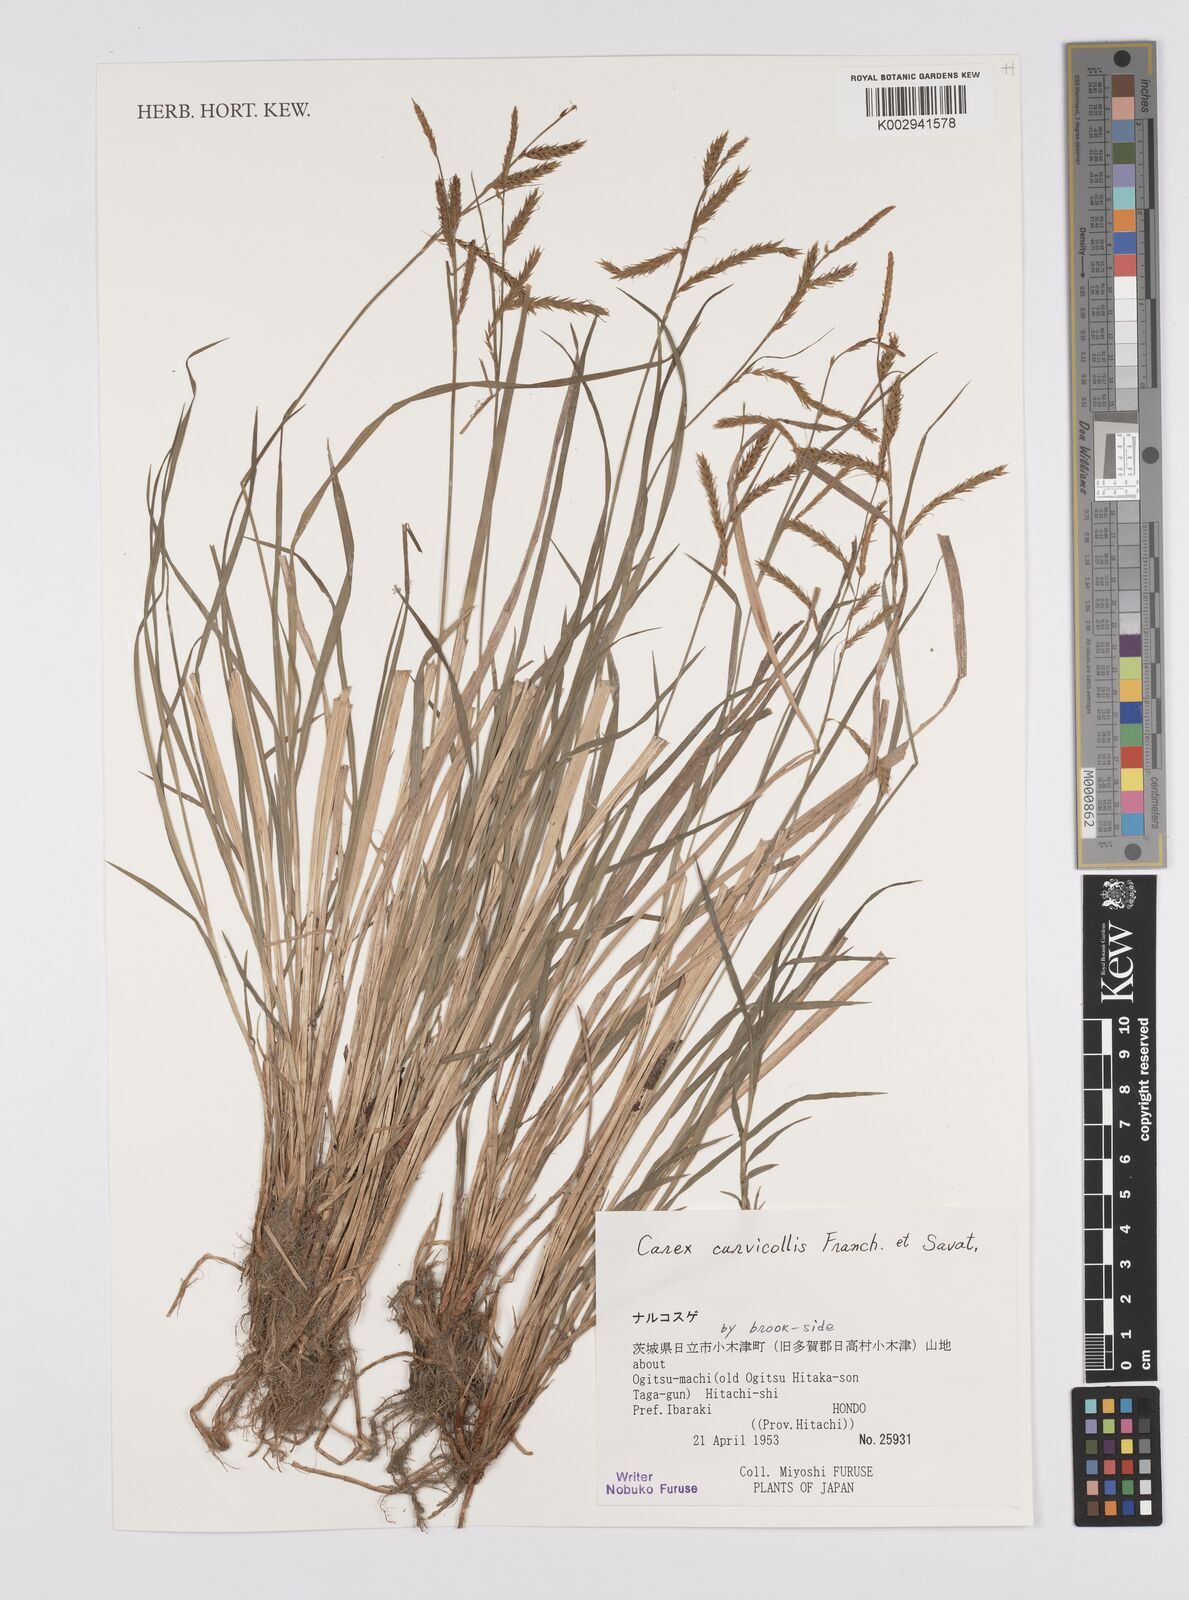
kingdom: Plantae
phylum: Tracheophyta
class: Liliopsida
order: Poales
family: Cyperaceae
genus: Carex
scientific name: Carex curvicollis
